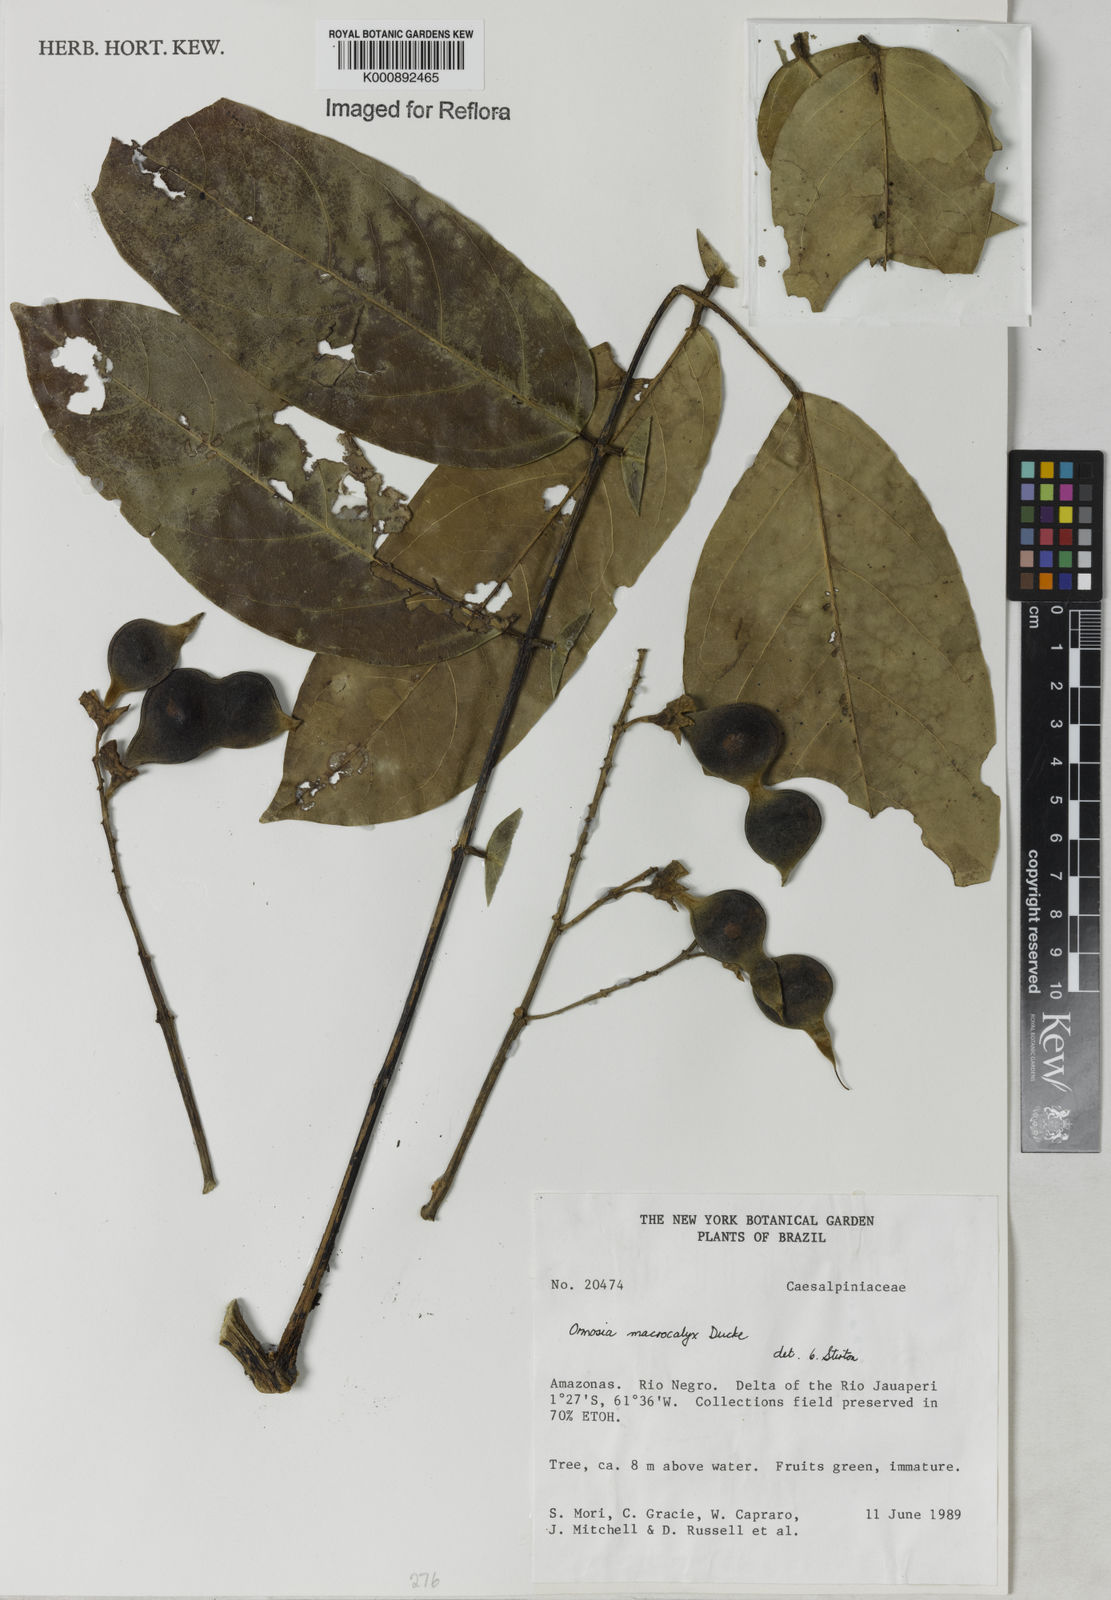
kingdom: Plantae
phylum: Tracheophyta
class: Magnoliopsida
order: Fabales
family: Fabaceae
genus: Ormosia
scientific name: Ormosia macrocalyx
